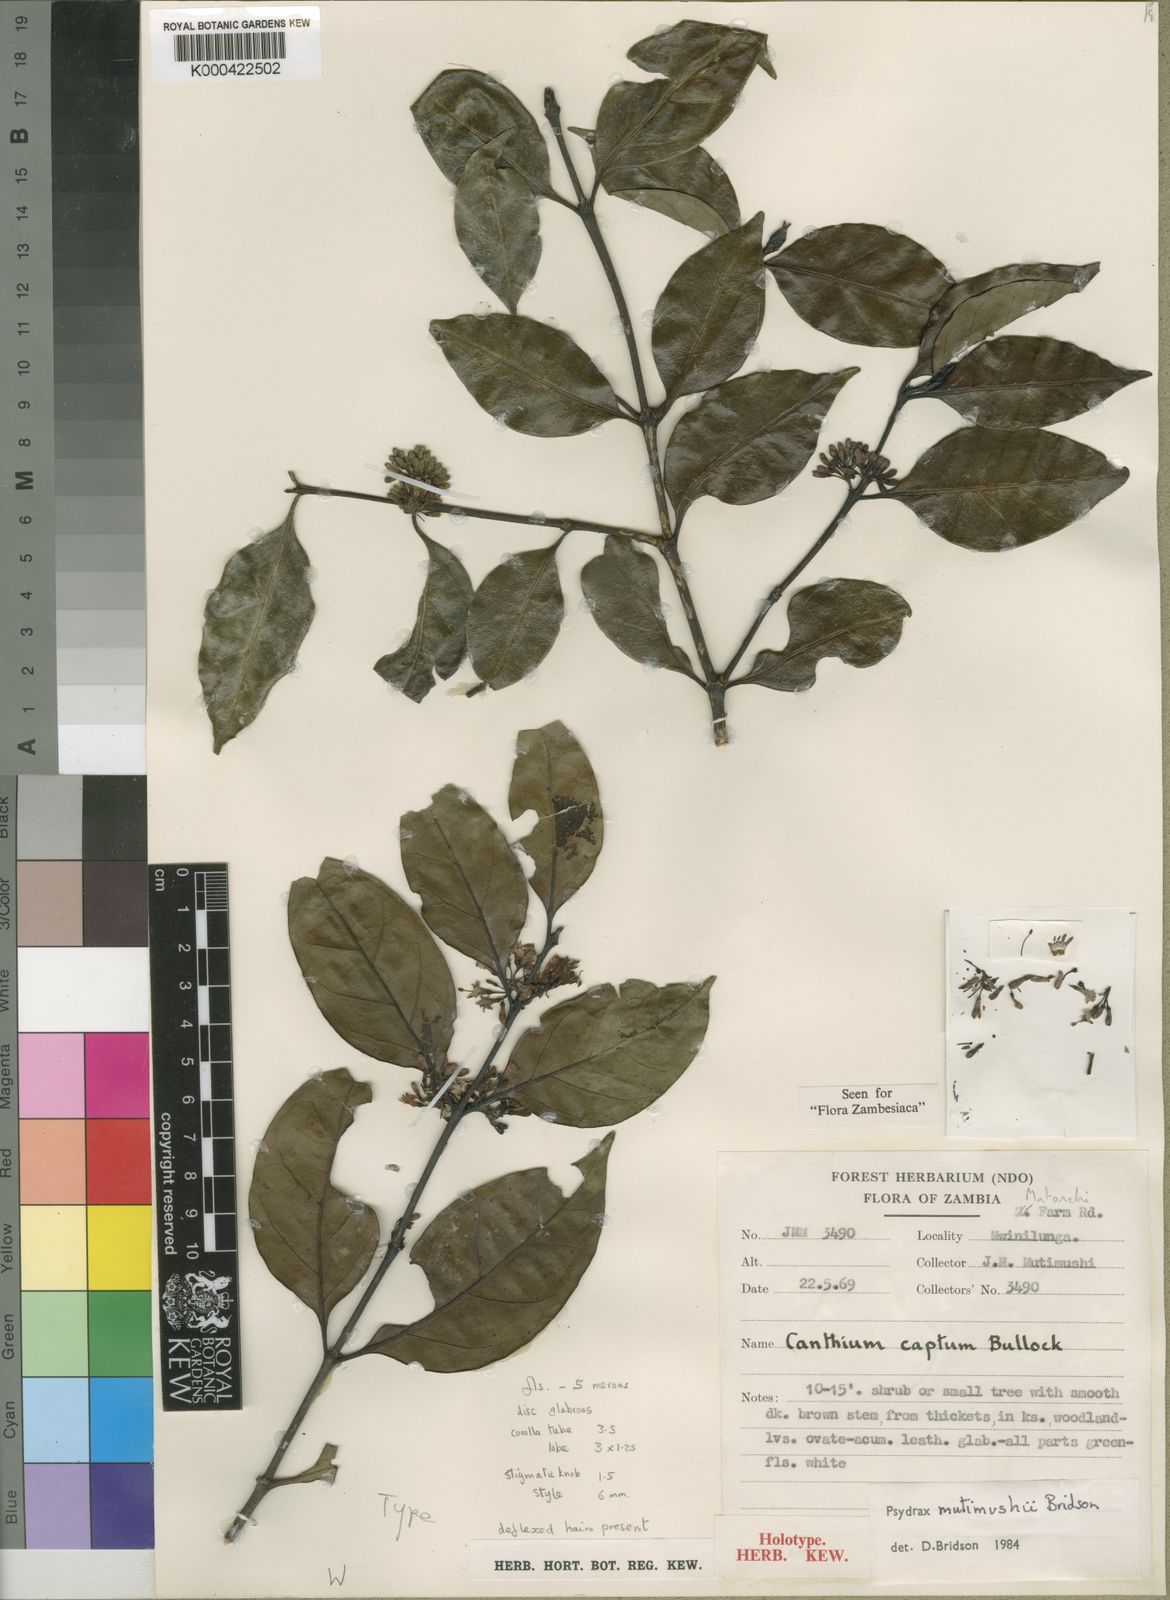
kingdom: Plantae
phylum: Tracheophyta
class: Magnoliopsida
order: Gentianales
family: Rubiaceae
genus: Psydrax
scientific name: Psydrax mutimushii
